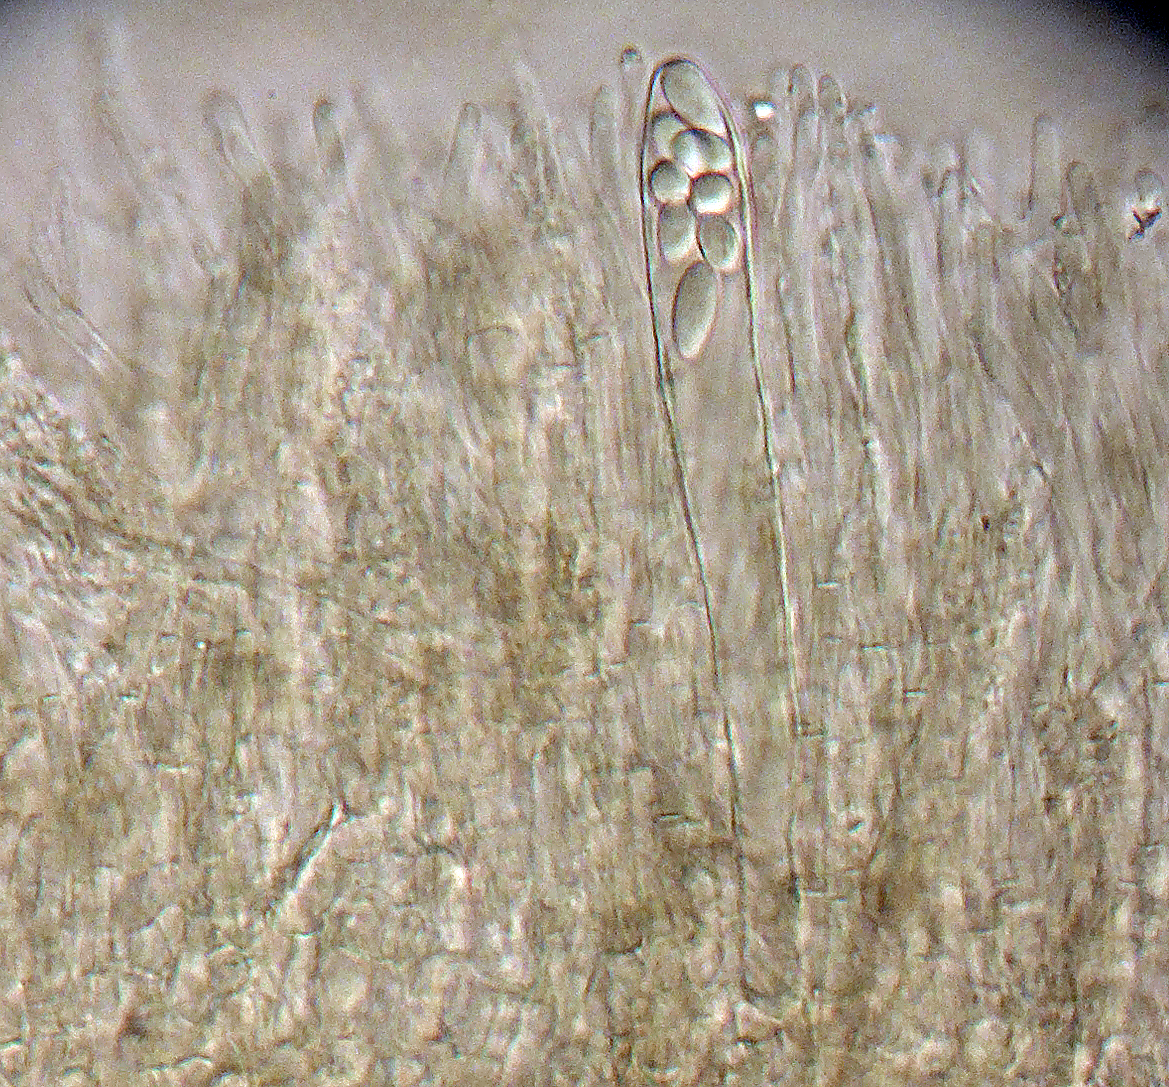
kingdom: Fungi
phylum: Ascomycota
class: Leotiomycetes
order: Helotiales
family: Mollisiaceae
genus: Mollisia
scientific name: Mollisia spectabilis
